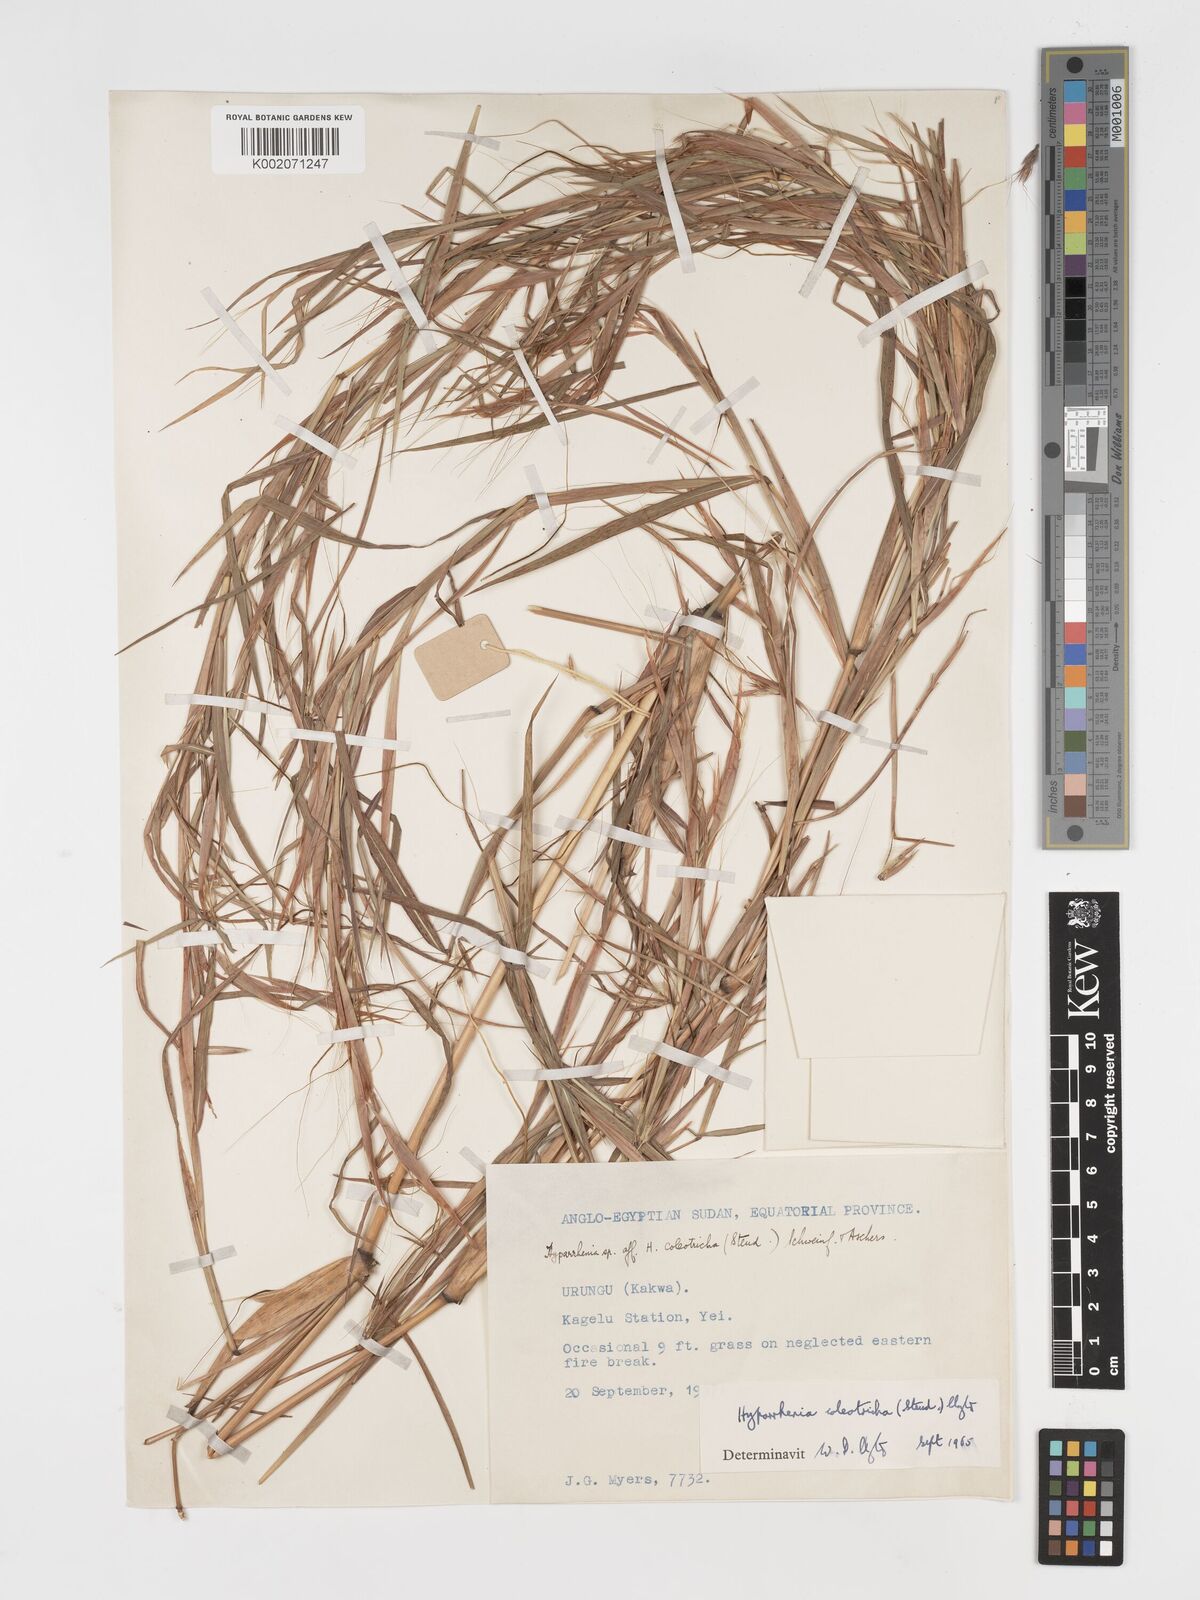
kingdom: Plantae
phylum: Tracheophyta
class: Liliopsida
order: Poales
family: Poaceae
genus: Hyparrhenia
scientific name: Hyparrhenia coleotricha
